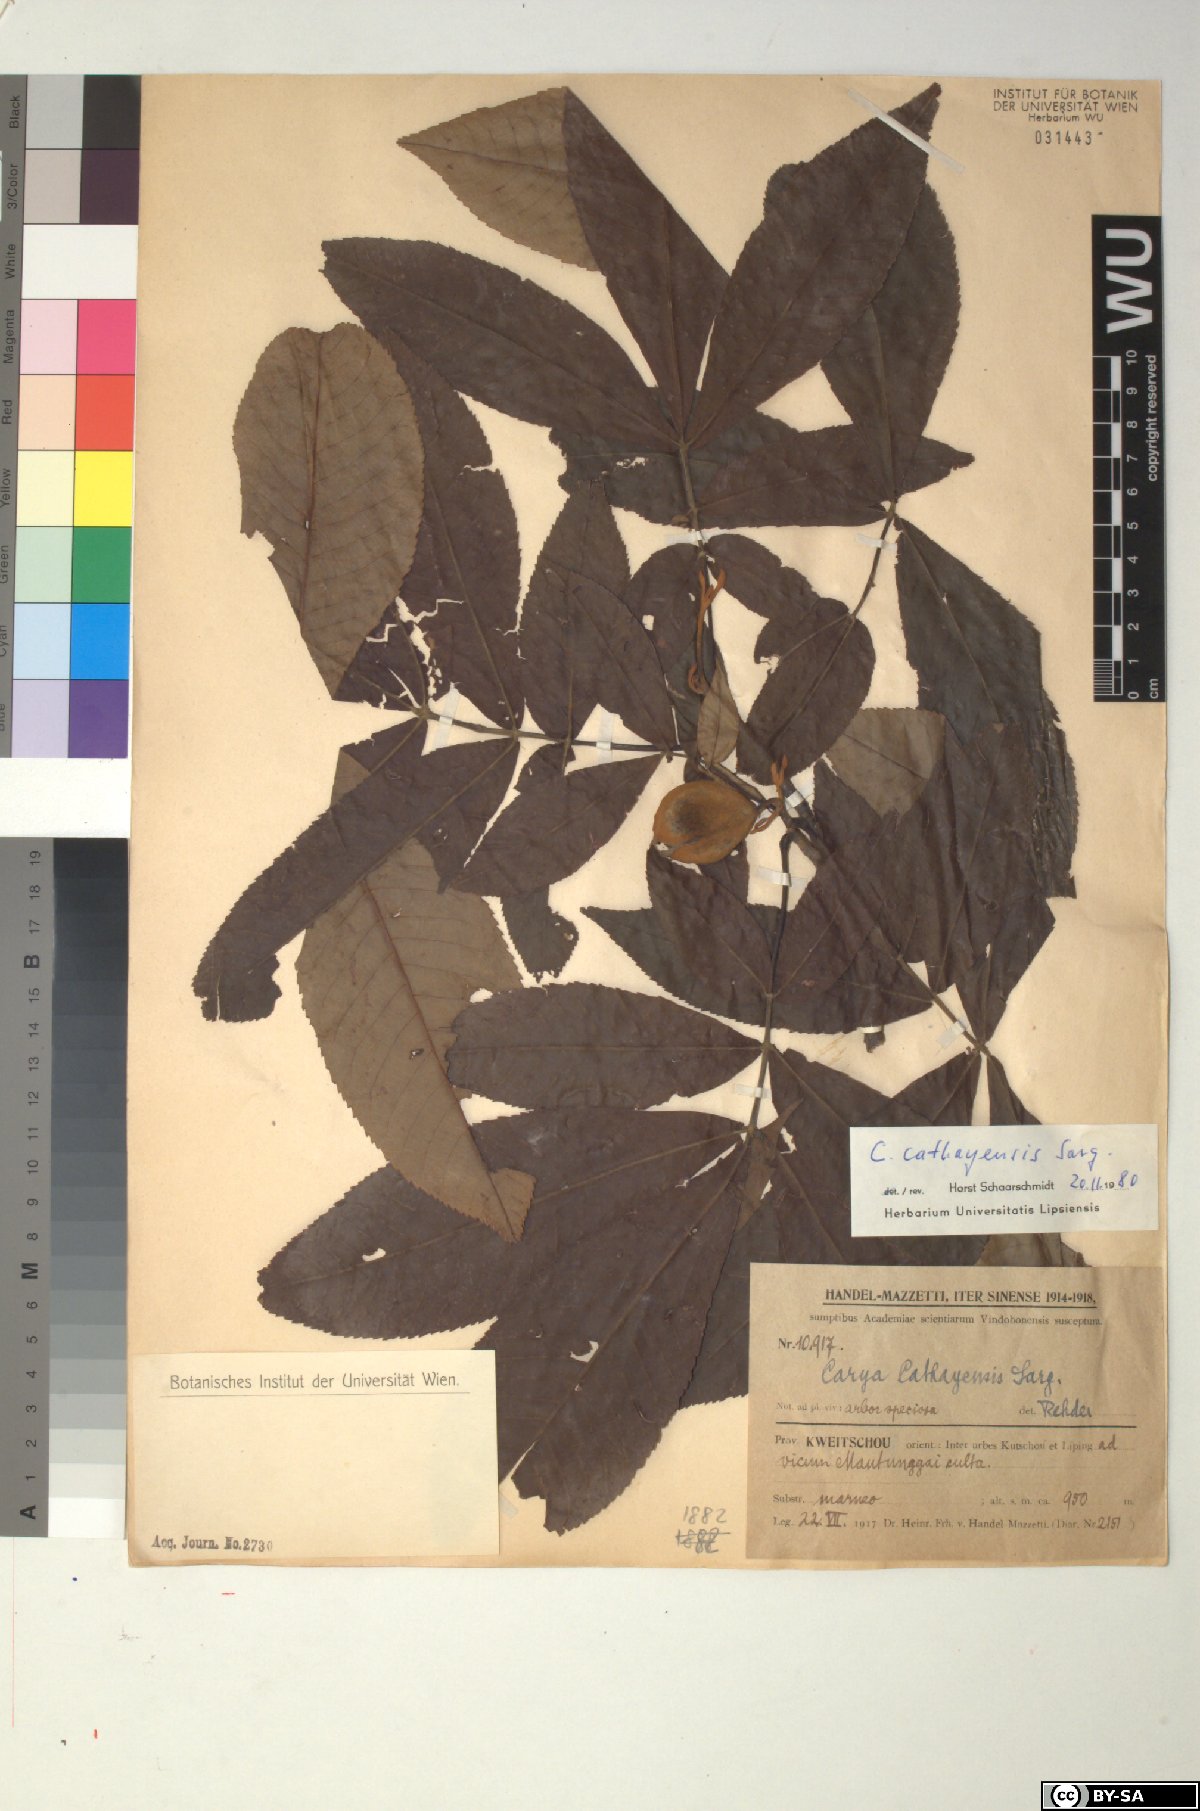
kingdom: Plantae
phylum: Tracheophyta
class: Magnoliopsida
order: Fagales
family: Juglandaceae
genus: Carya
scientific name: Carya cathayensis
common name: Cathay hickory
